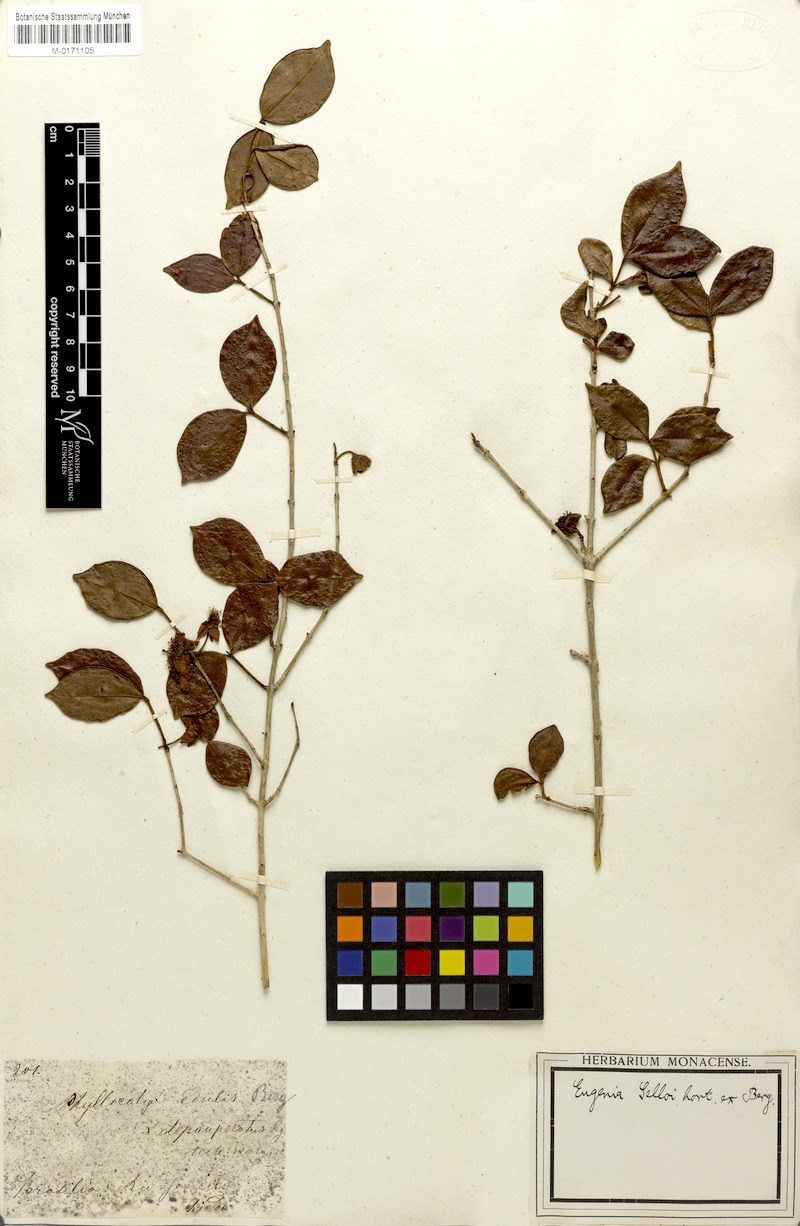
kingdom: Plantae
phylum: Tracheophyta
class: Magnoliopsida
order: Myrtales
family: Myrtaceae
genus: Eugenia
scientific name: Eugenia selloi
